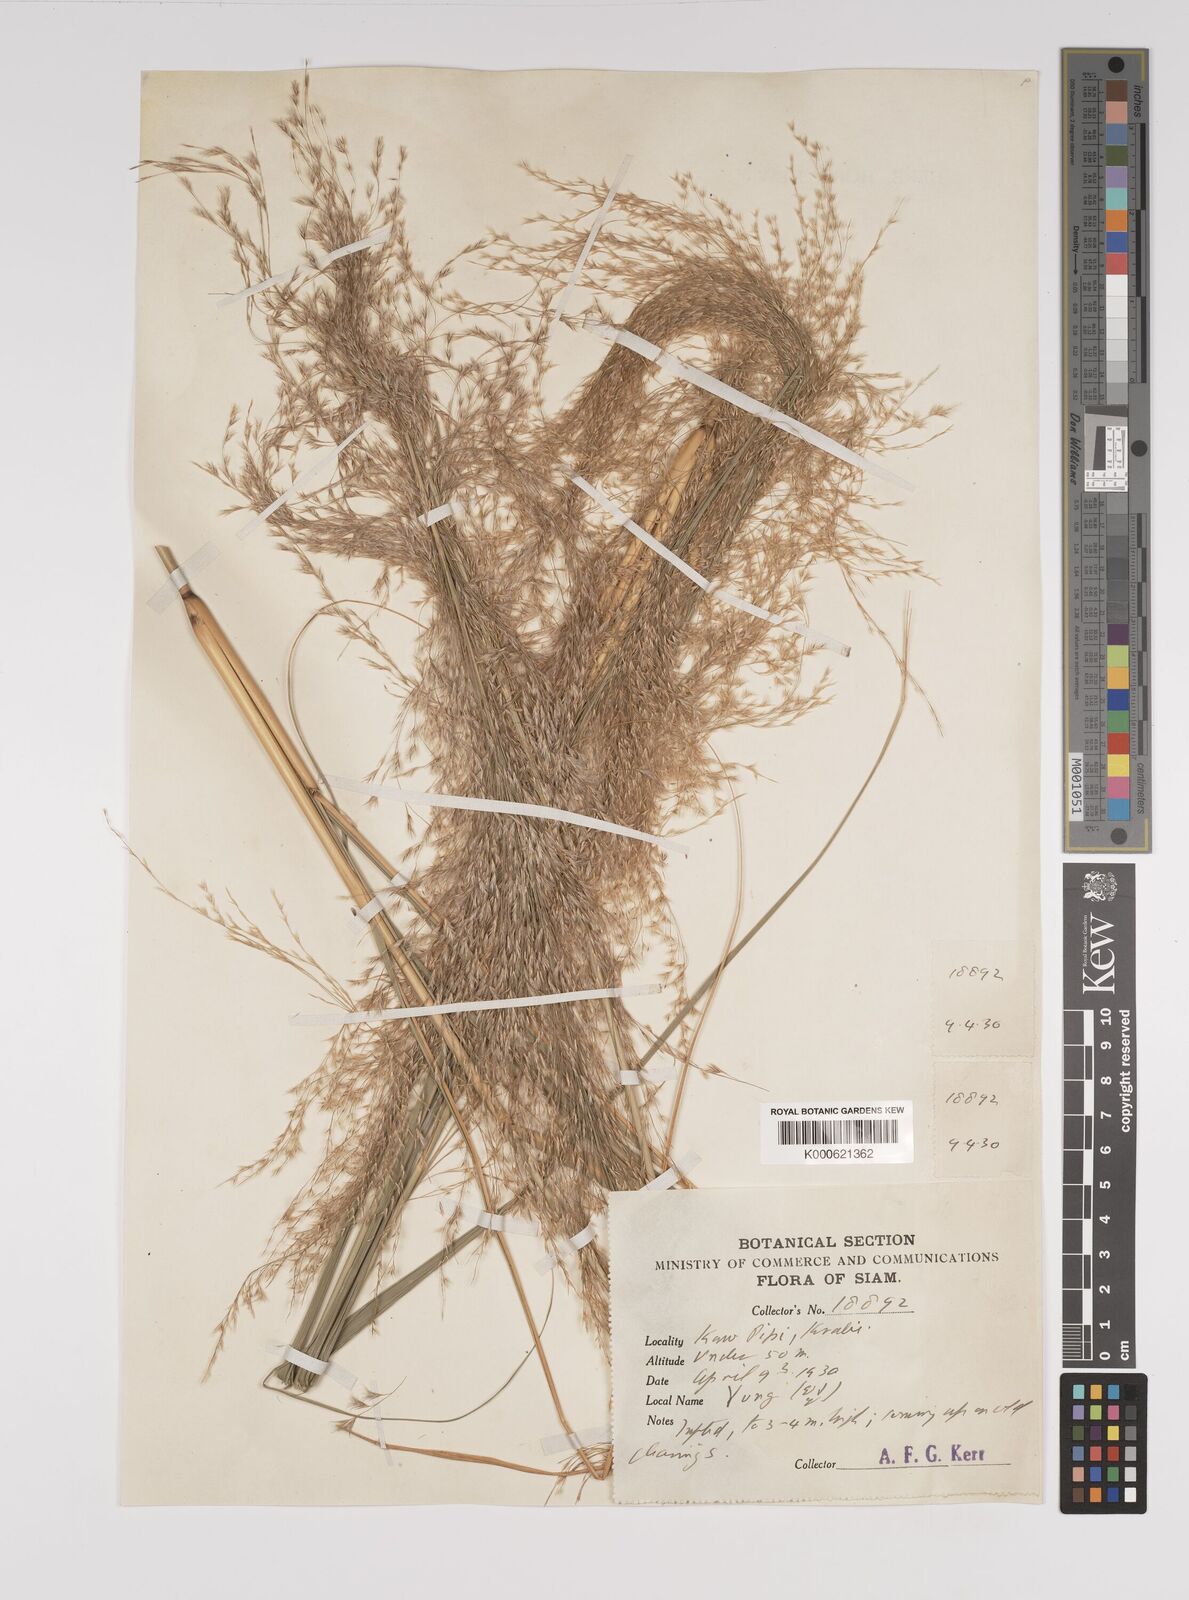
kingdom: Plantae
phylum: Tracheophyta
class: Liliopsida
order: Poales
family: Poaceae
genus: Neyraudia
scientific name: Neyraudia reynaudiana
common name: Silkreed
